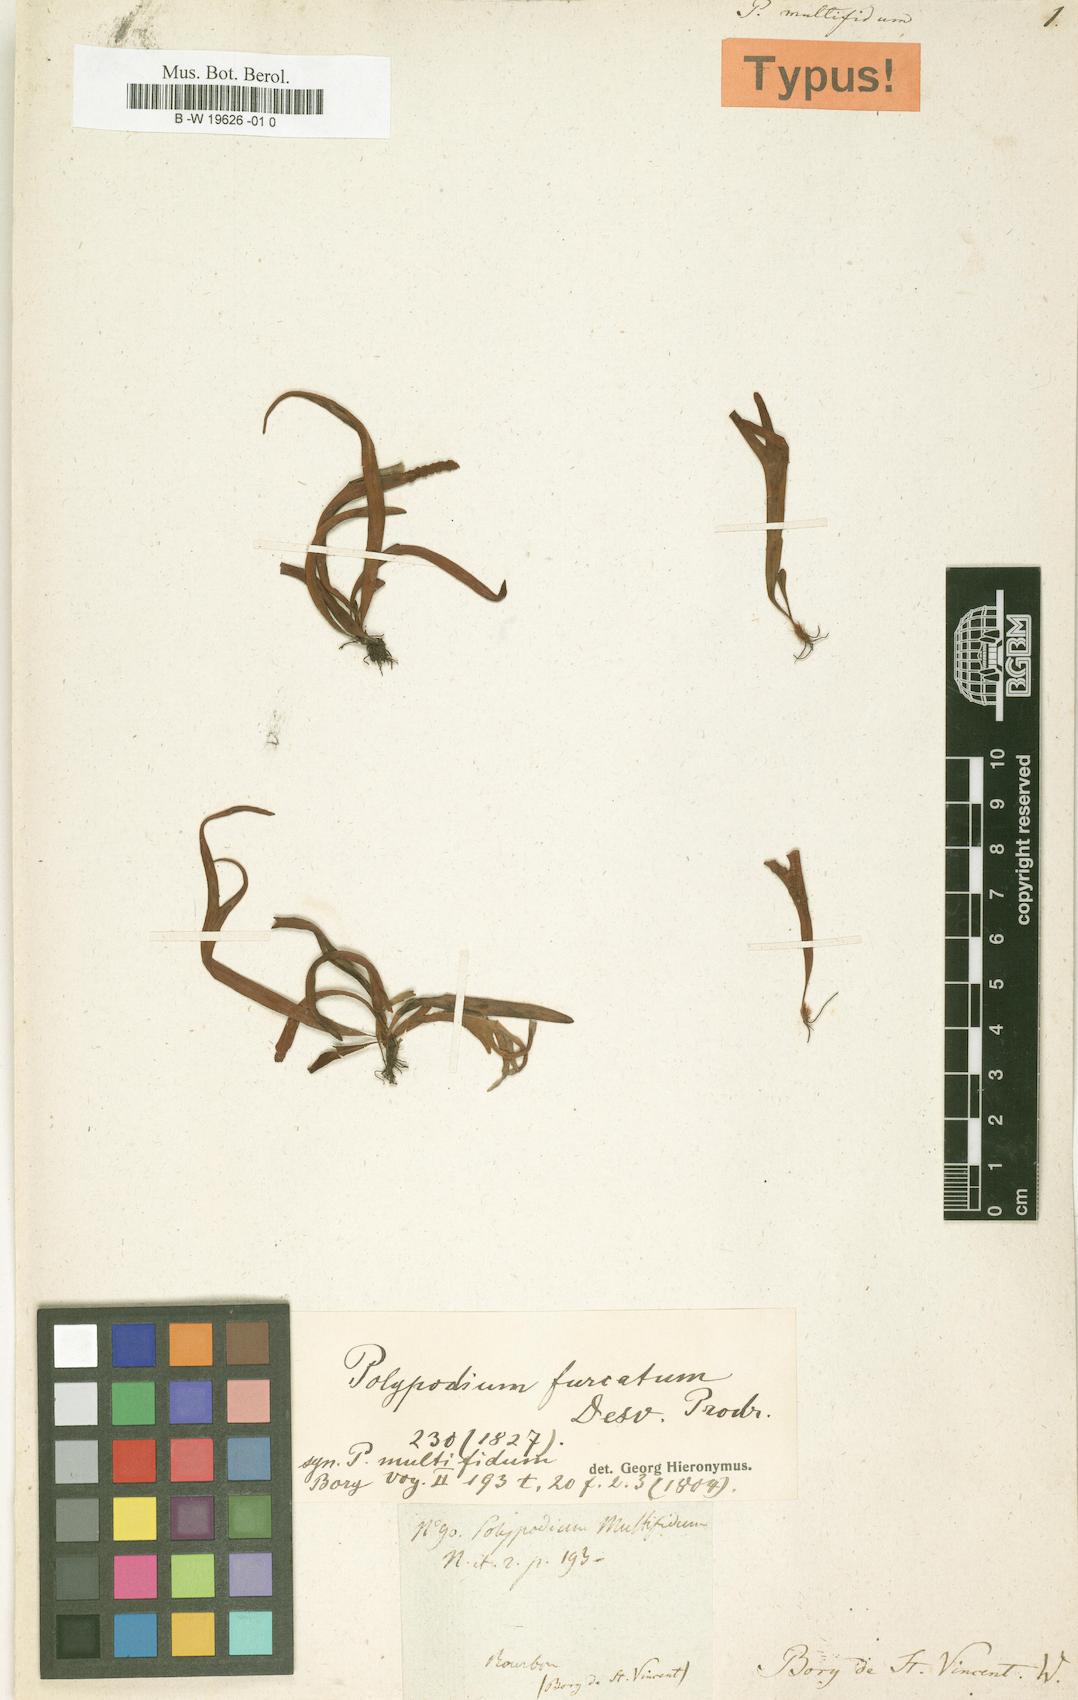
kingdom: Plantae
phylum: Tracheophyta
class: Polypodiopsida
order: Polypodiales
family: Polypodiaceae
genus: Grammitis
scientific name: Grammitis obtusa
